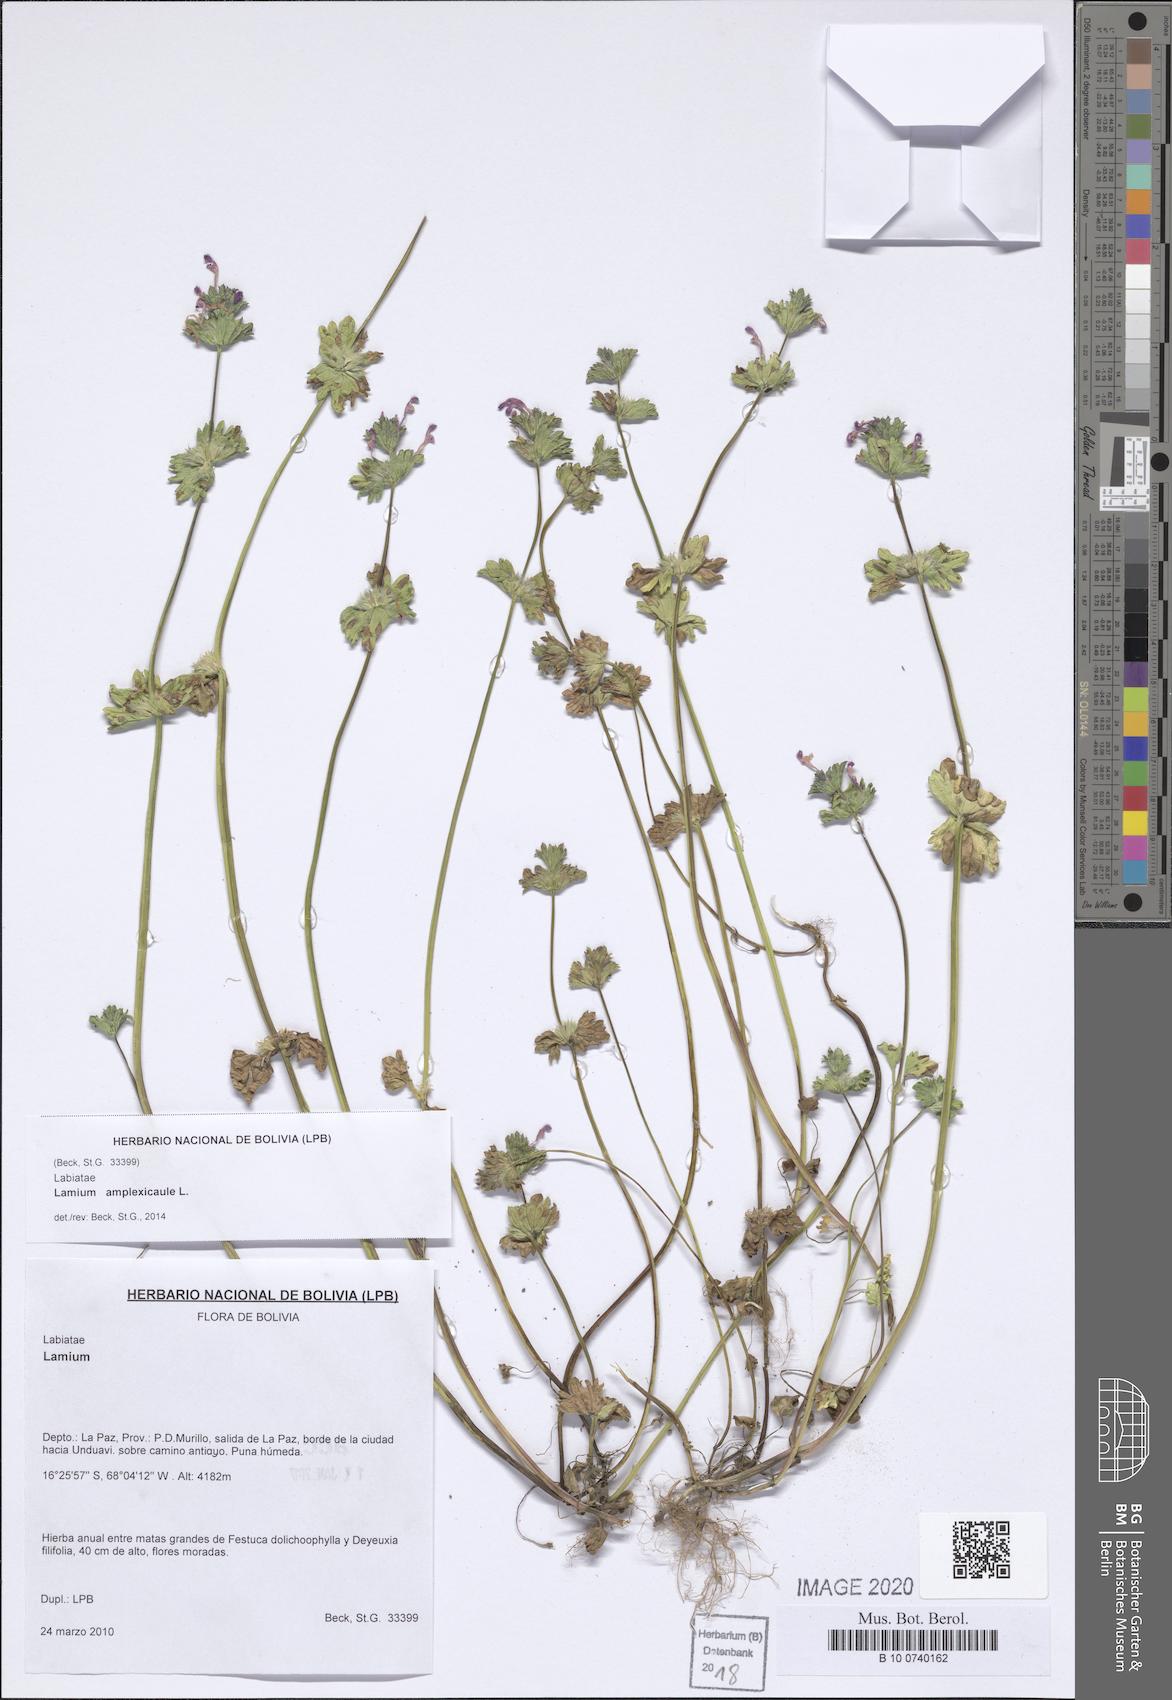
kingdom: Plantae
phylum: Tracheophyta
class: Magnoliopsida
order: Lamiales
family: Lamiaceae
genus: Lamium
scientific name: Lamium amplexicaule
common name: Henbit dead-nettle
